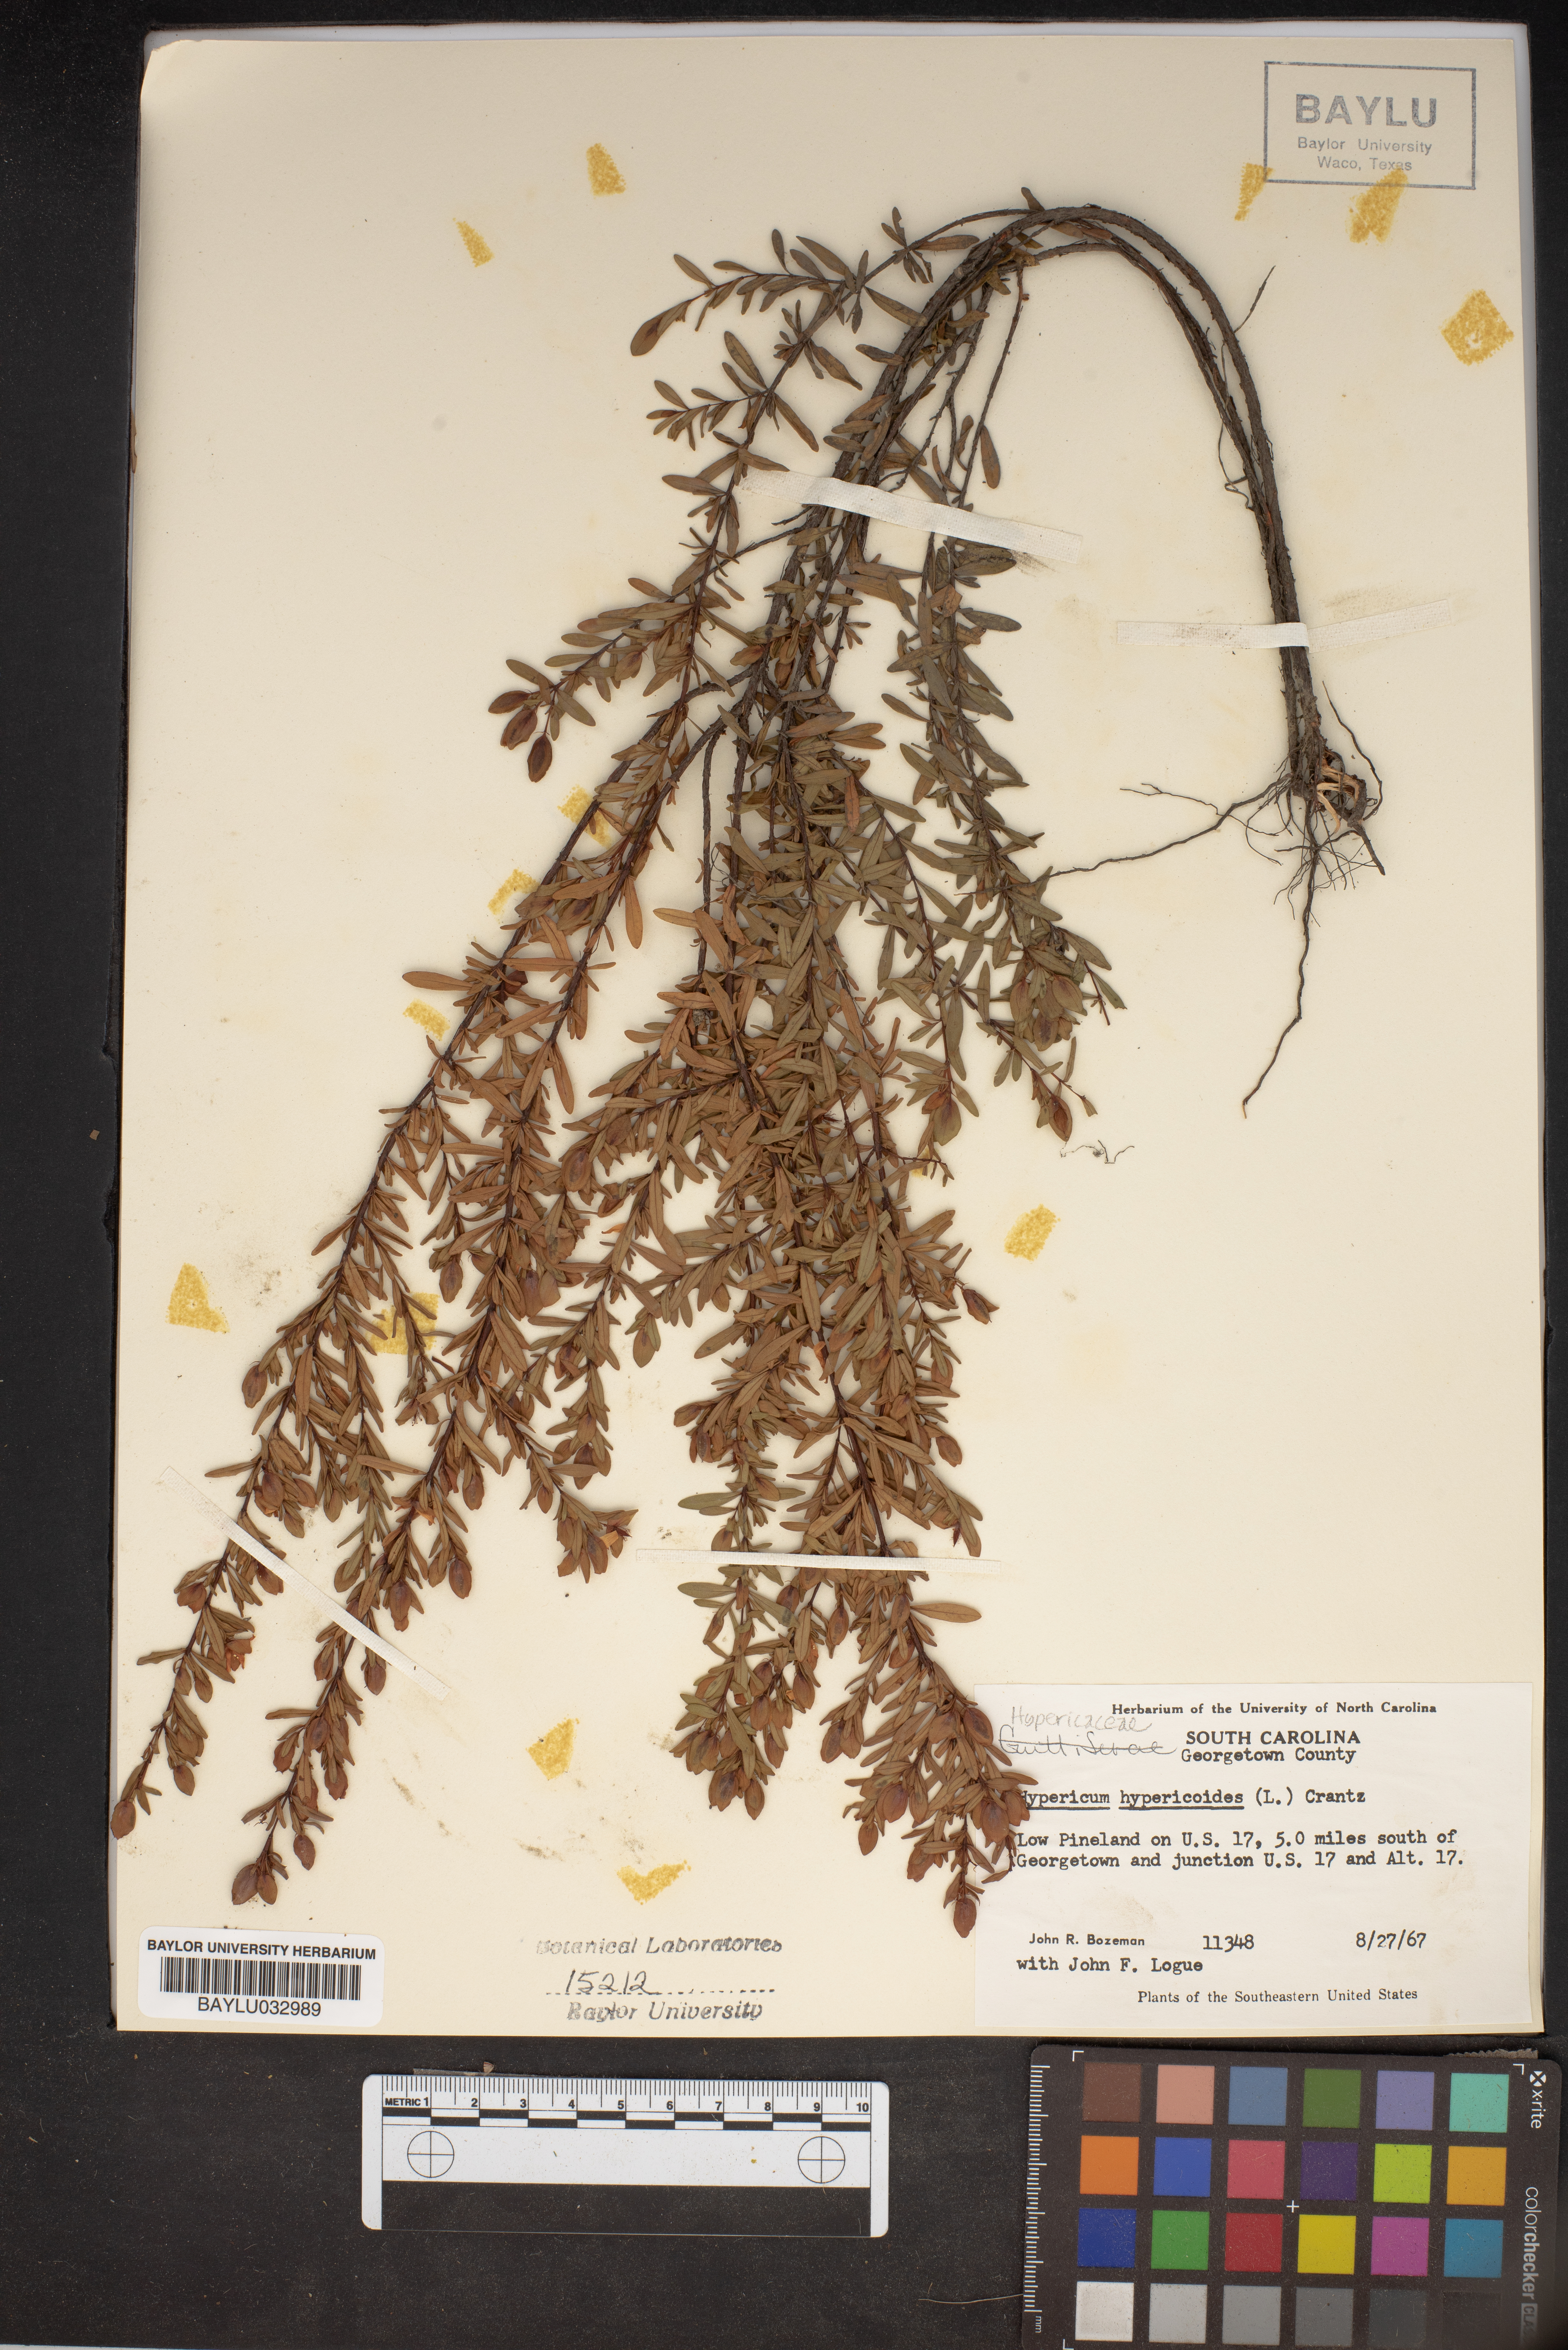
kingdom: Plantae
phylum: Tracheophyta
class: Magnoliopsida
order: Malpighiales
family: Hypericaceae
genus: Hypericum
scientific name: Hypericum hypericoides
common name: St. andrew's cross
